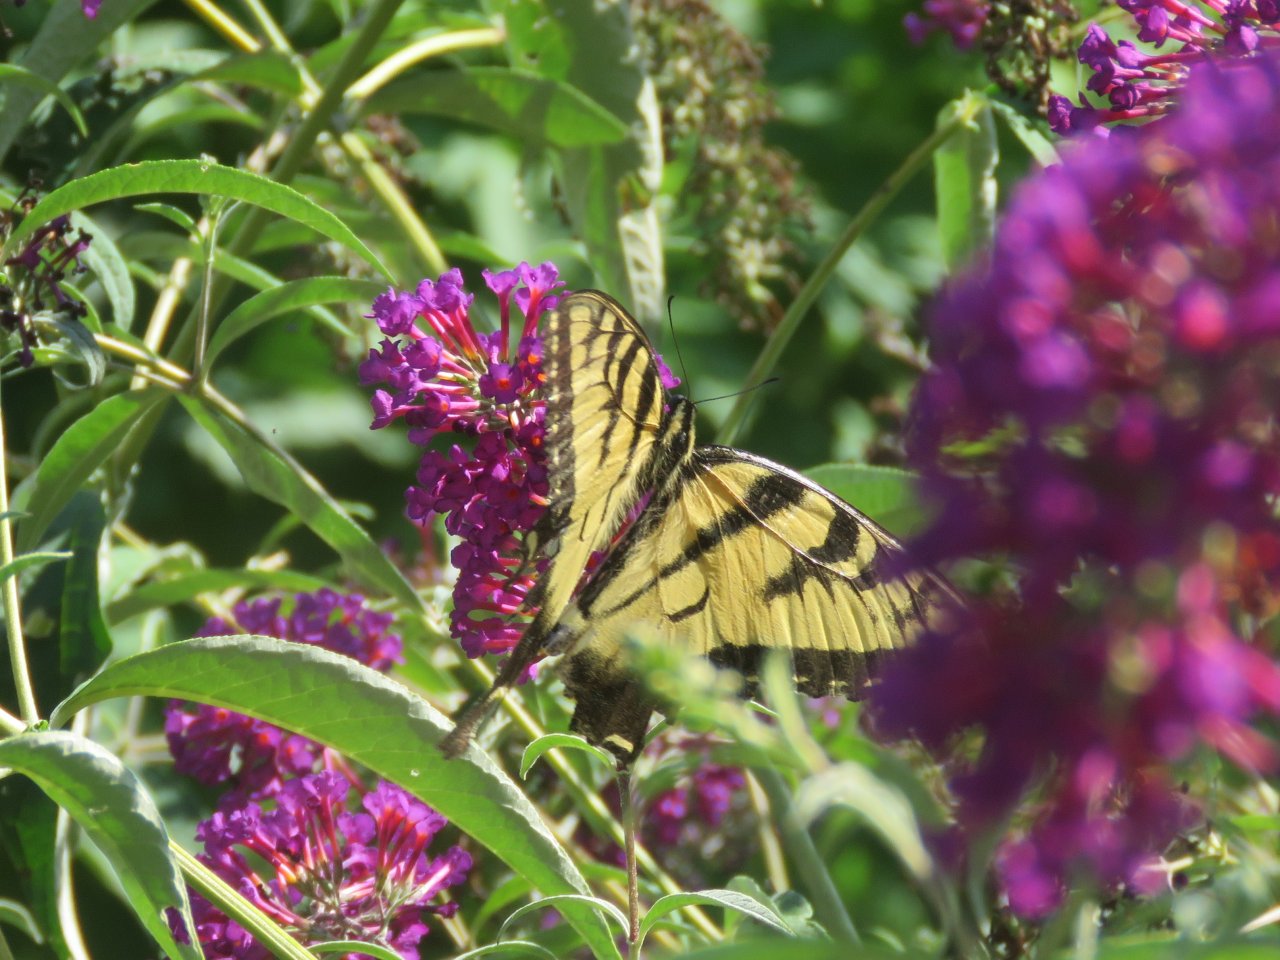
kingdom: Animalia
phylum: Arthropoda
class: Insecta
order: Lepidoptera
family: Papilionidae
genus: Pterourus
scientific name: Pterourus glaucus
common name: Eastern Tiger Swallowtail
